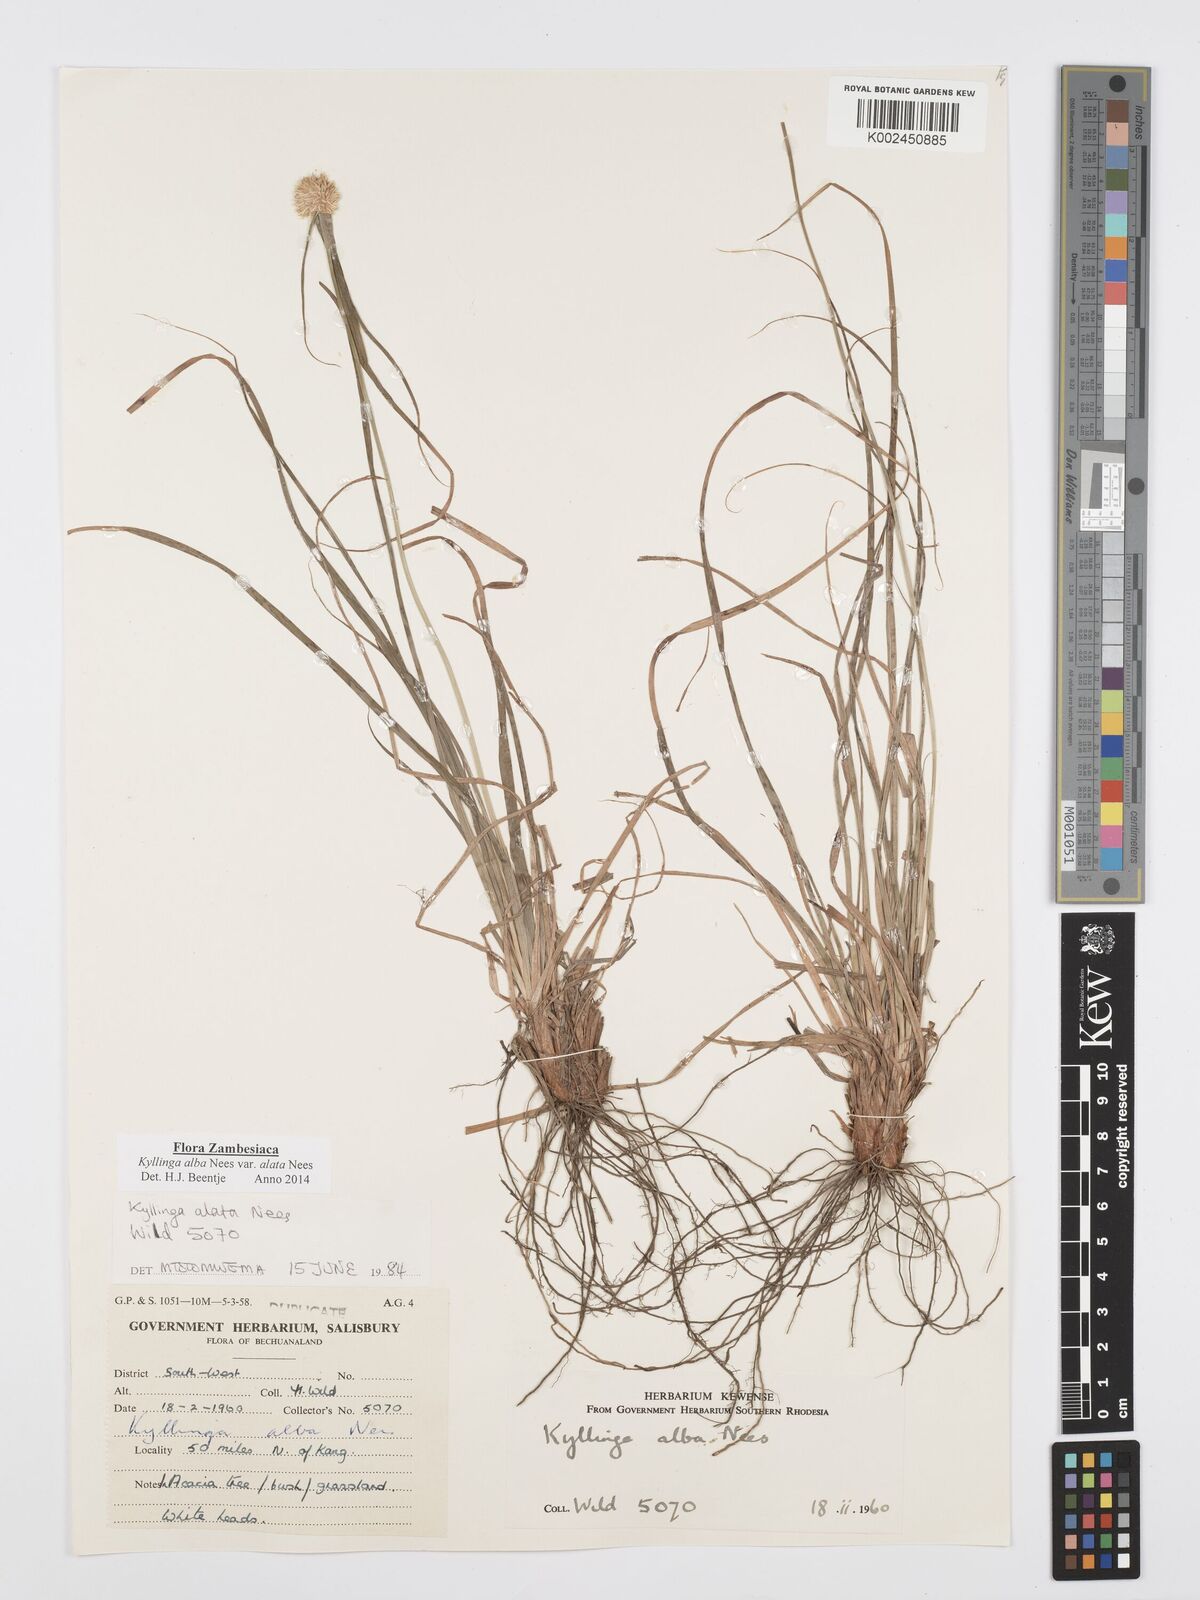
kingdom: Plantae
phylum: Tracheophyta
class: Liliopsida
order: Poales
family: Cyperaceae
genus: Cyperus
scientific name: Cyperus alatus
